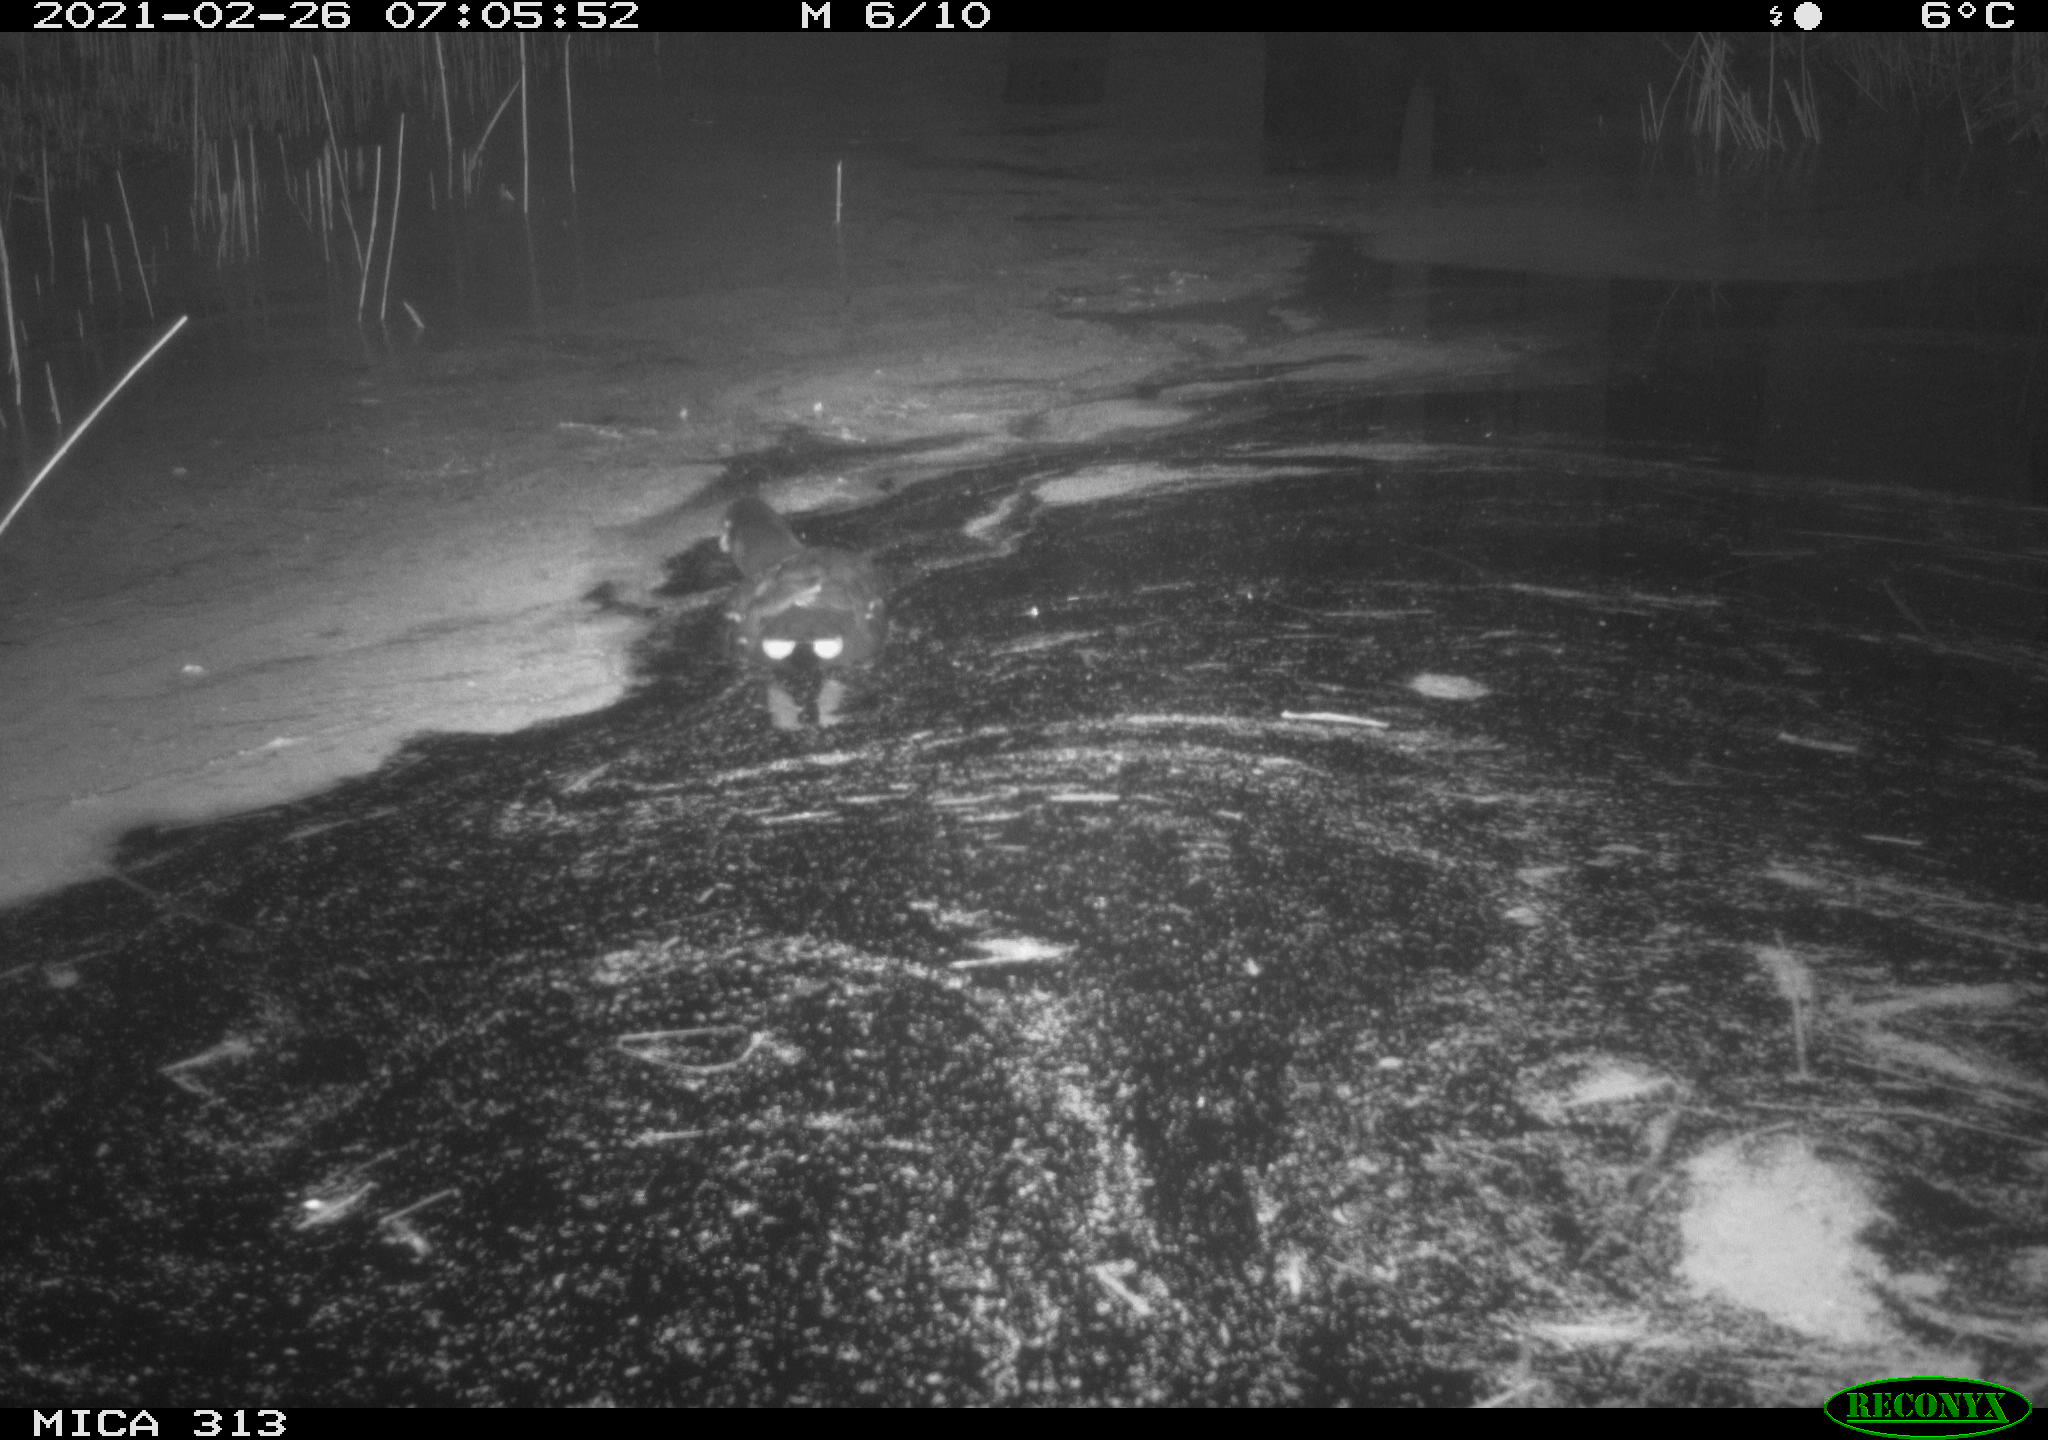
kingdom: Animalia
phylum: Chordata
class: Aves
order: Gruiformes
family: Rallidae
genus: Gallinula
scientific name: Gallinula chloropus
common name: Common moorhen
